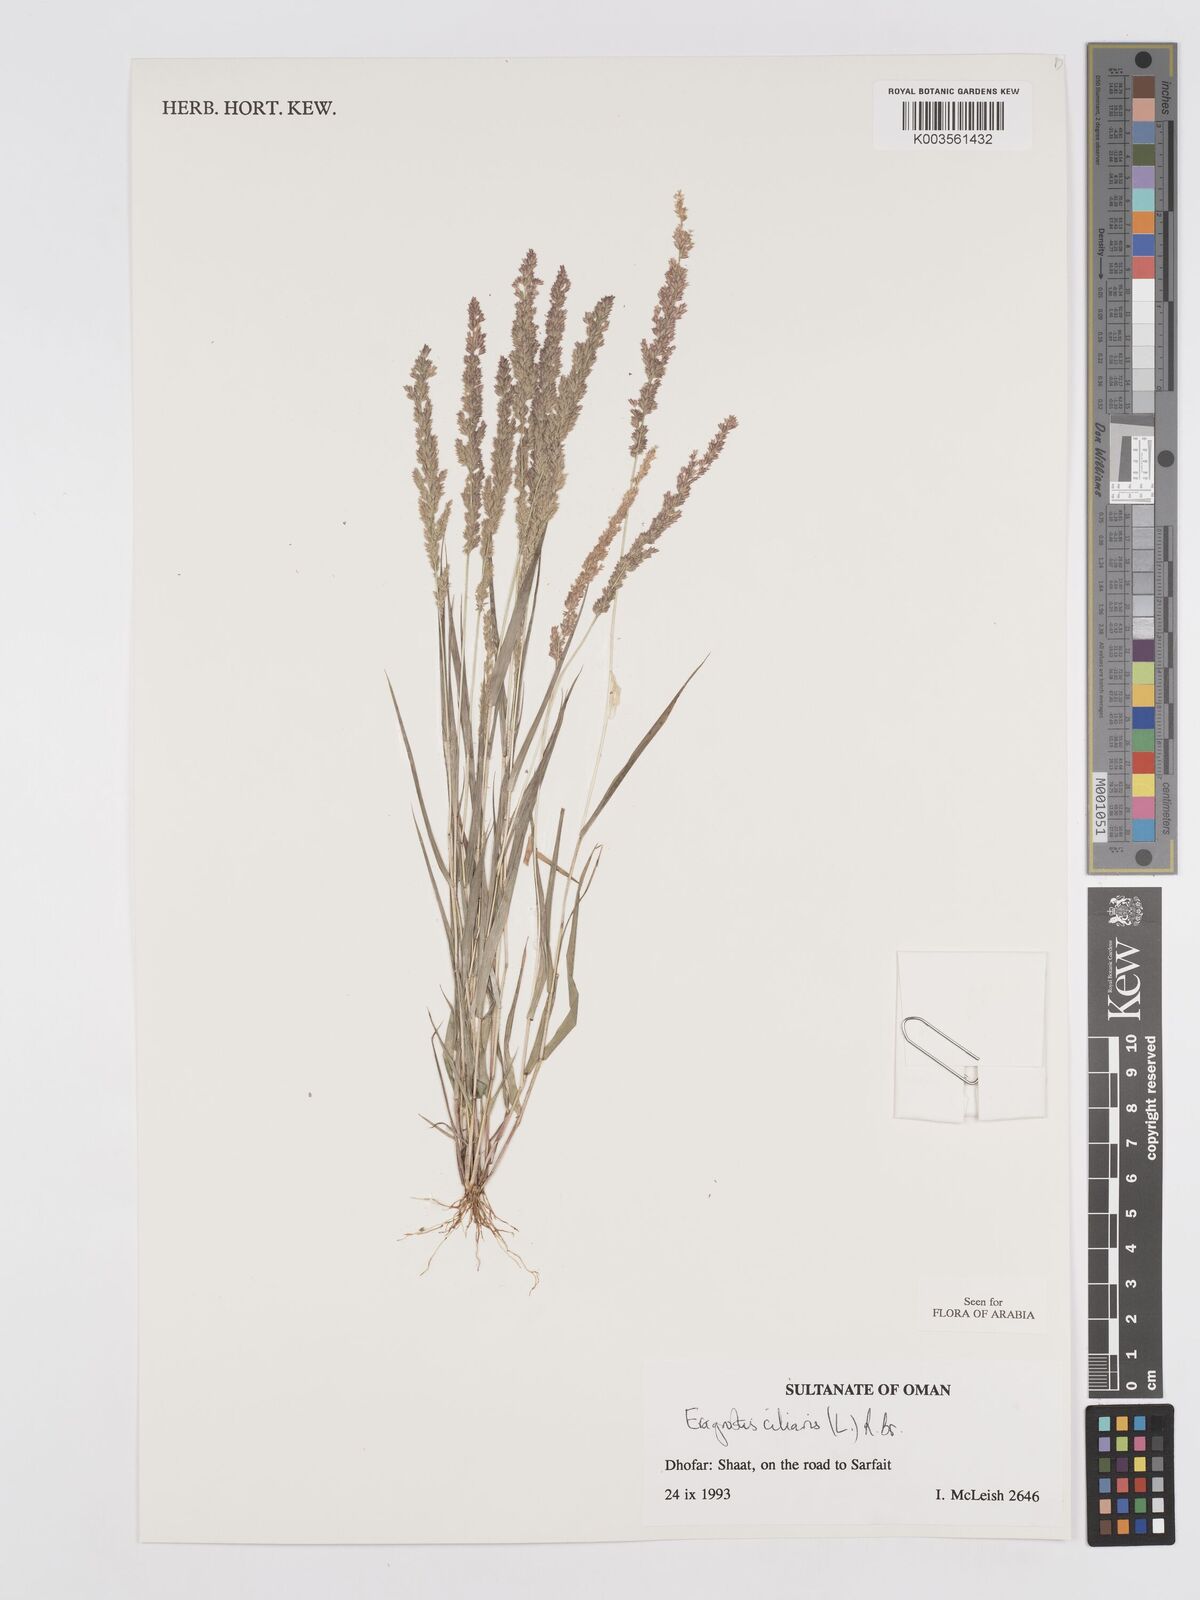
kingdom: Plantae
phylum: Tracheophyta
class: Liliopsida
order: Poales
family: Poaceae
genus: Eragrostis
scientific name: Eragrostis ciliaris
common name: Gophertail lovegrass
